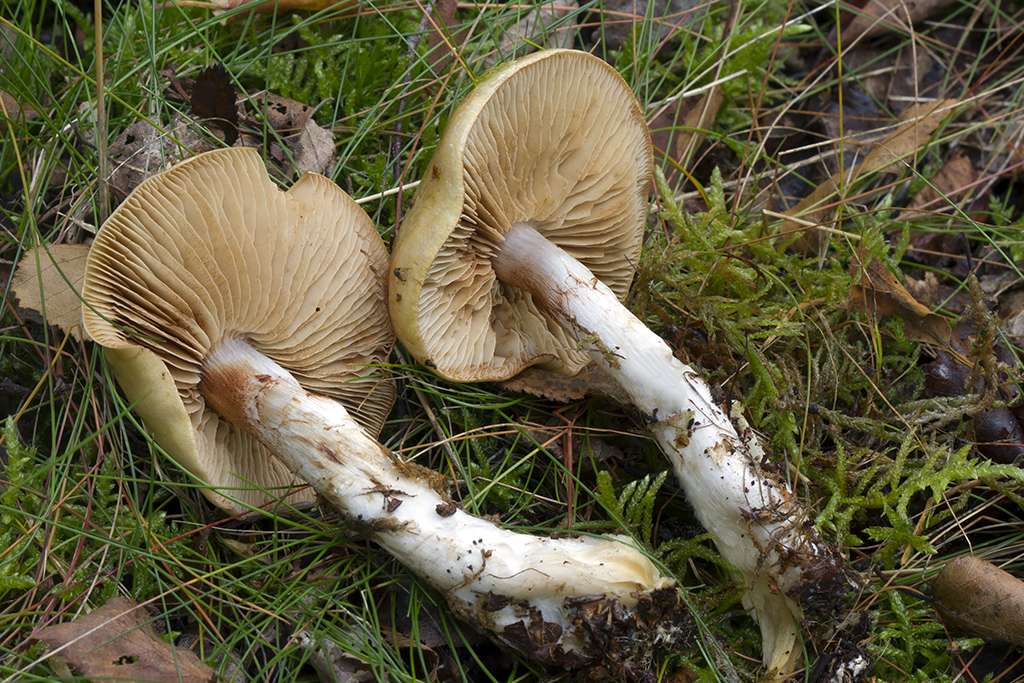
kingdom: Fungi
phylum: Basidiomycota
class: Agaricomycetes
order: Agaricales
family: Cortinariaceae
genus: Cortinarius
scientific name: Cortinarius
